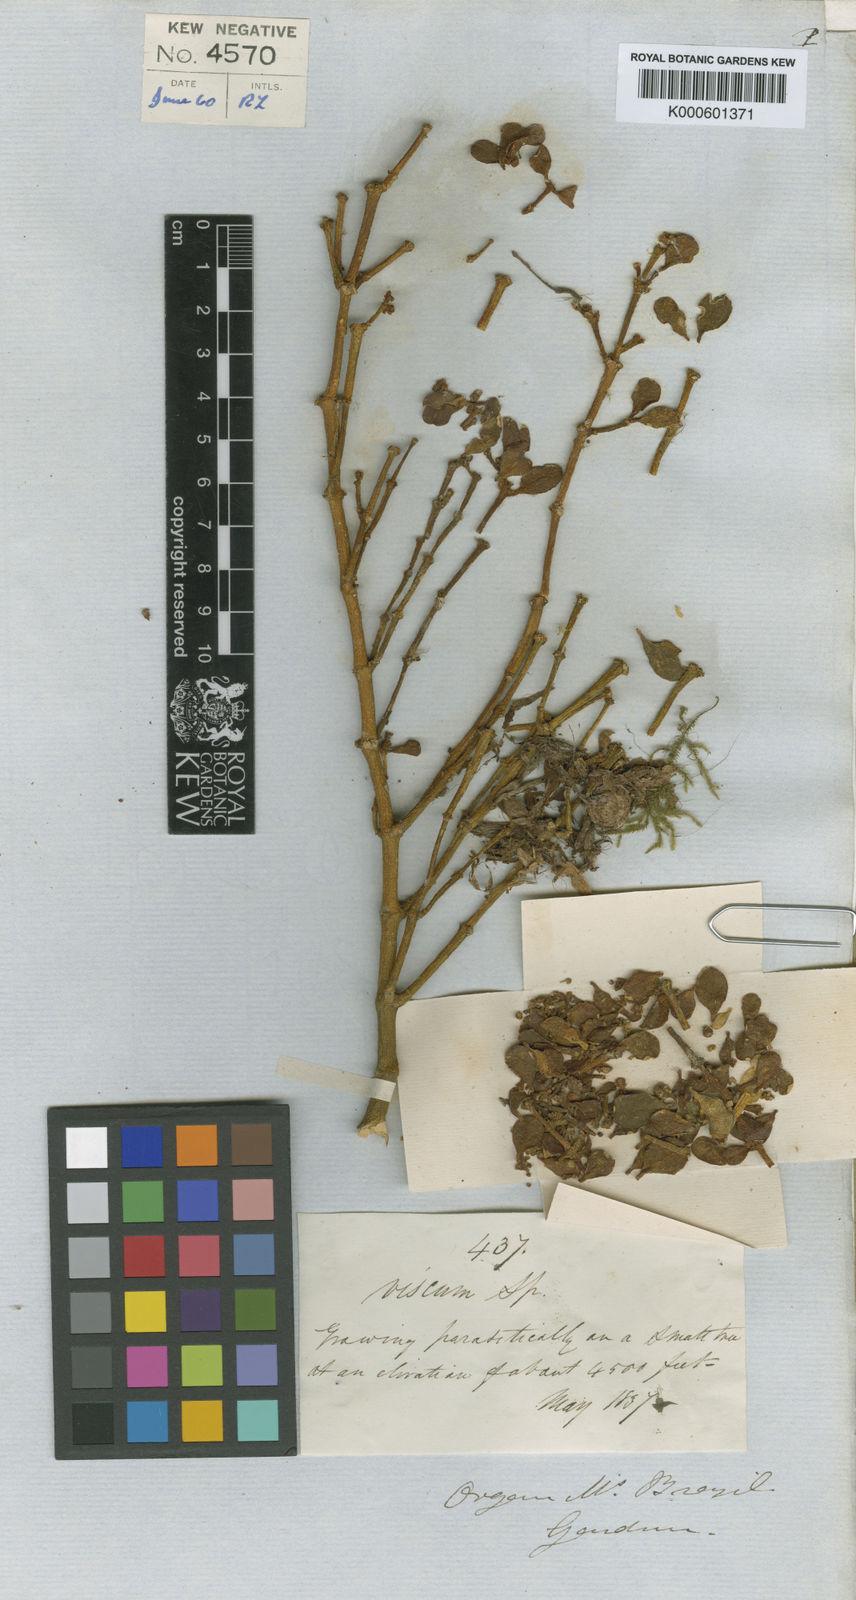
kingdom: Plantae
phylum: Tracheophyta
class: Magnoliopsida
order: Santalales
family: Viscaceae
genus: Dendrophthora
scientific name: Dendrophthora elliptica
